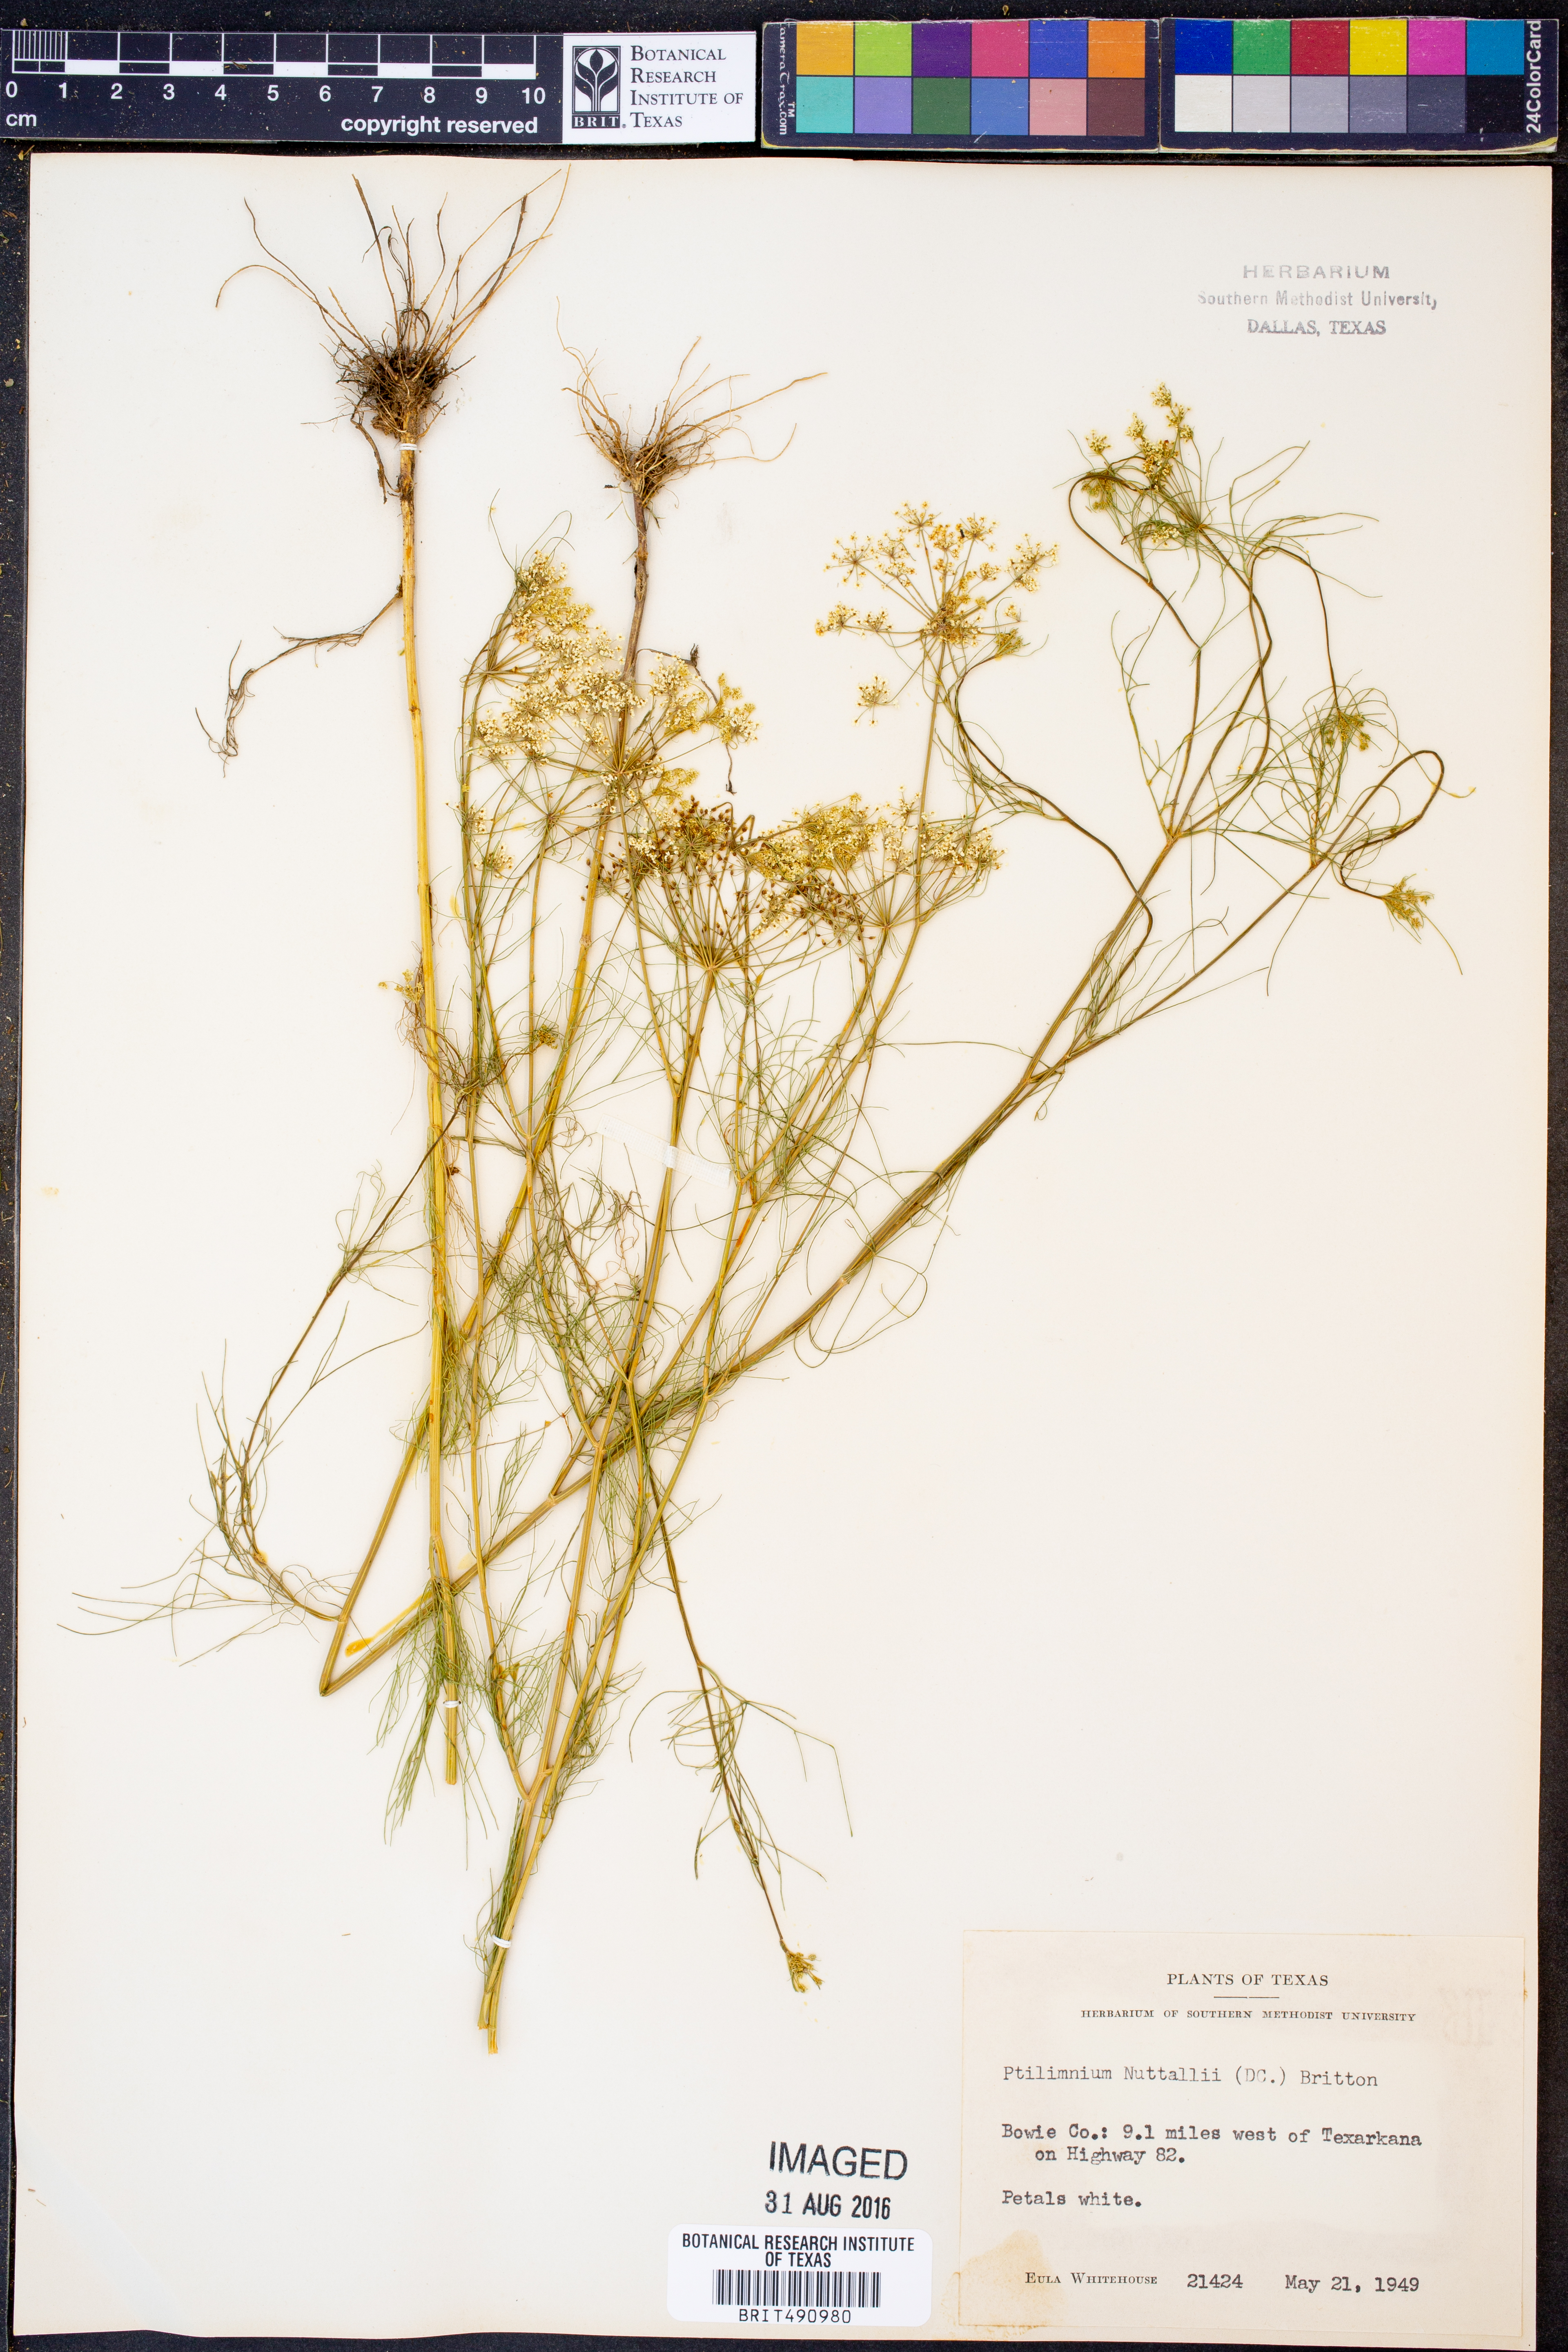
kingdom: Plantae
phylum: Tracheophyta
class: Magnoliopsida
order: Apiales
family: Apiaceae
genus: Ptilimnium
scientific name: Ptilimnium nuttallii
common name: Ozark bishop's-weed
